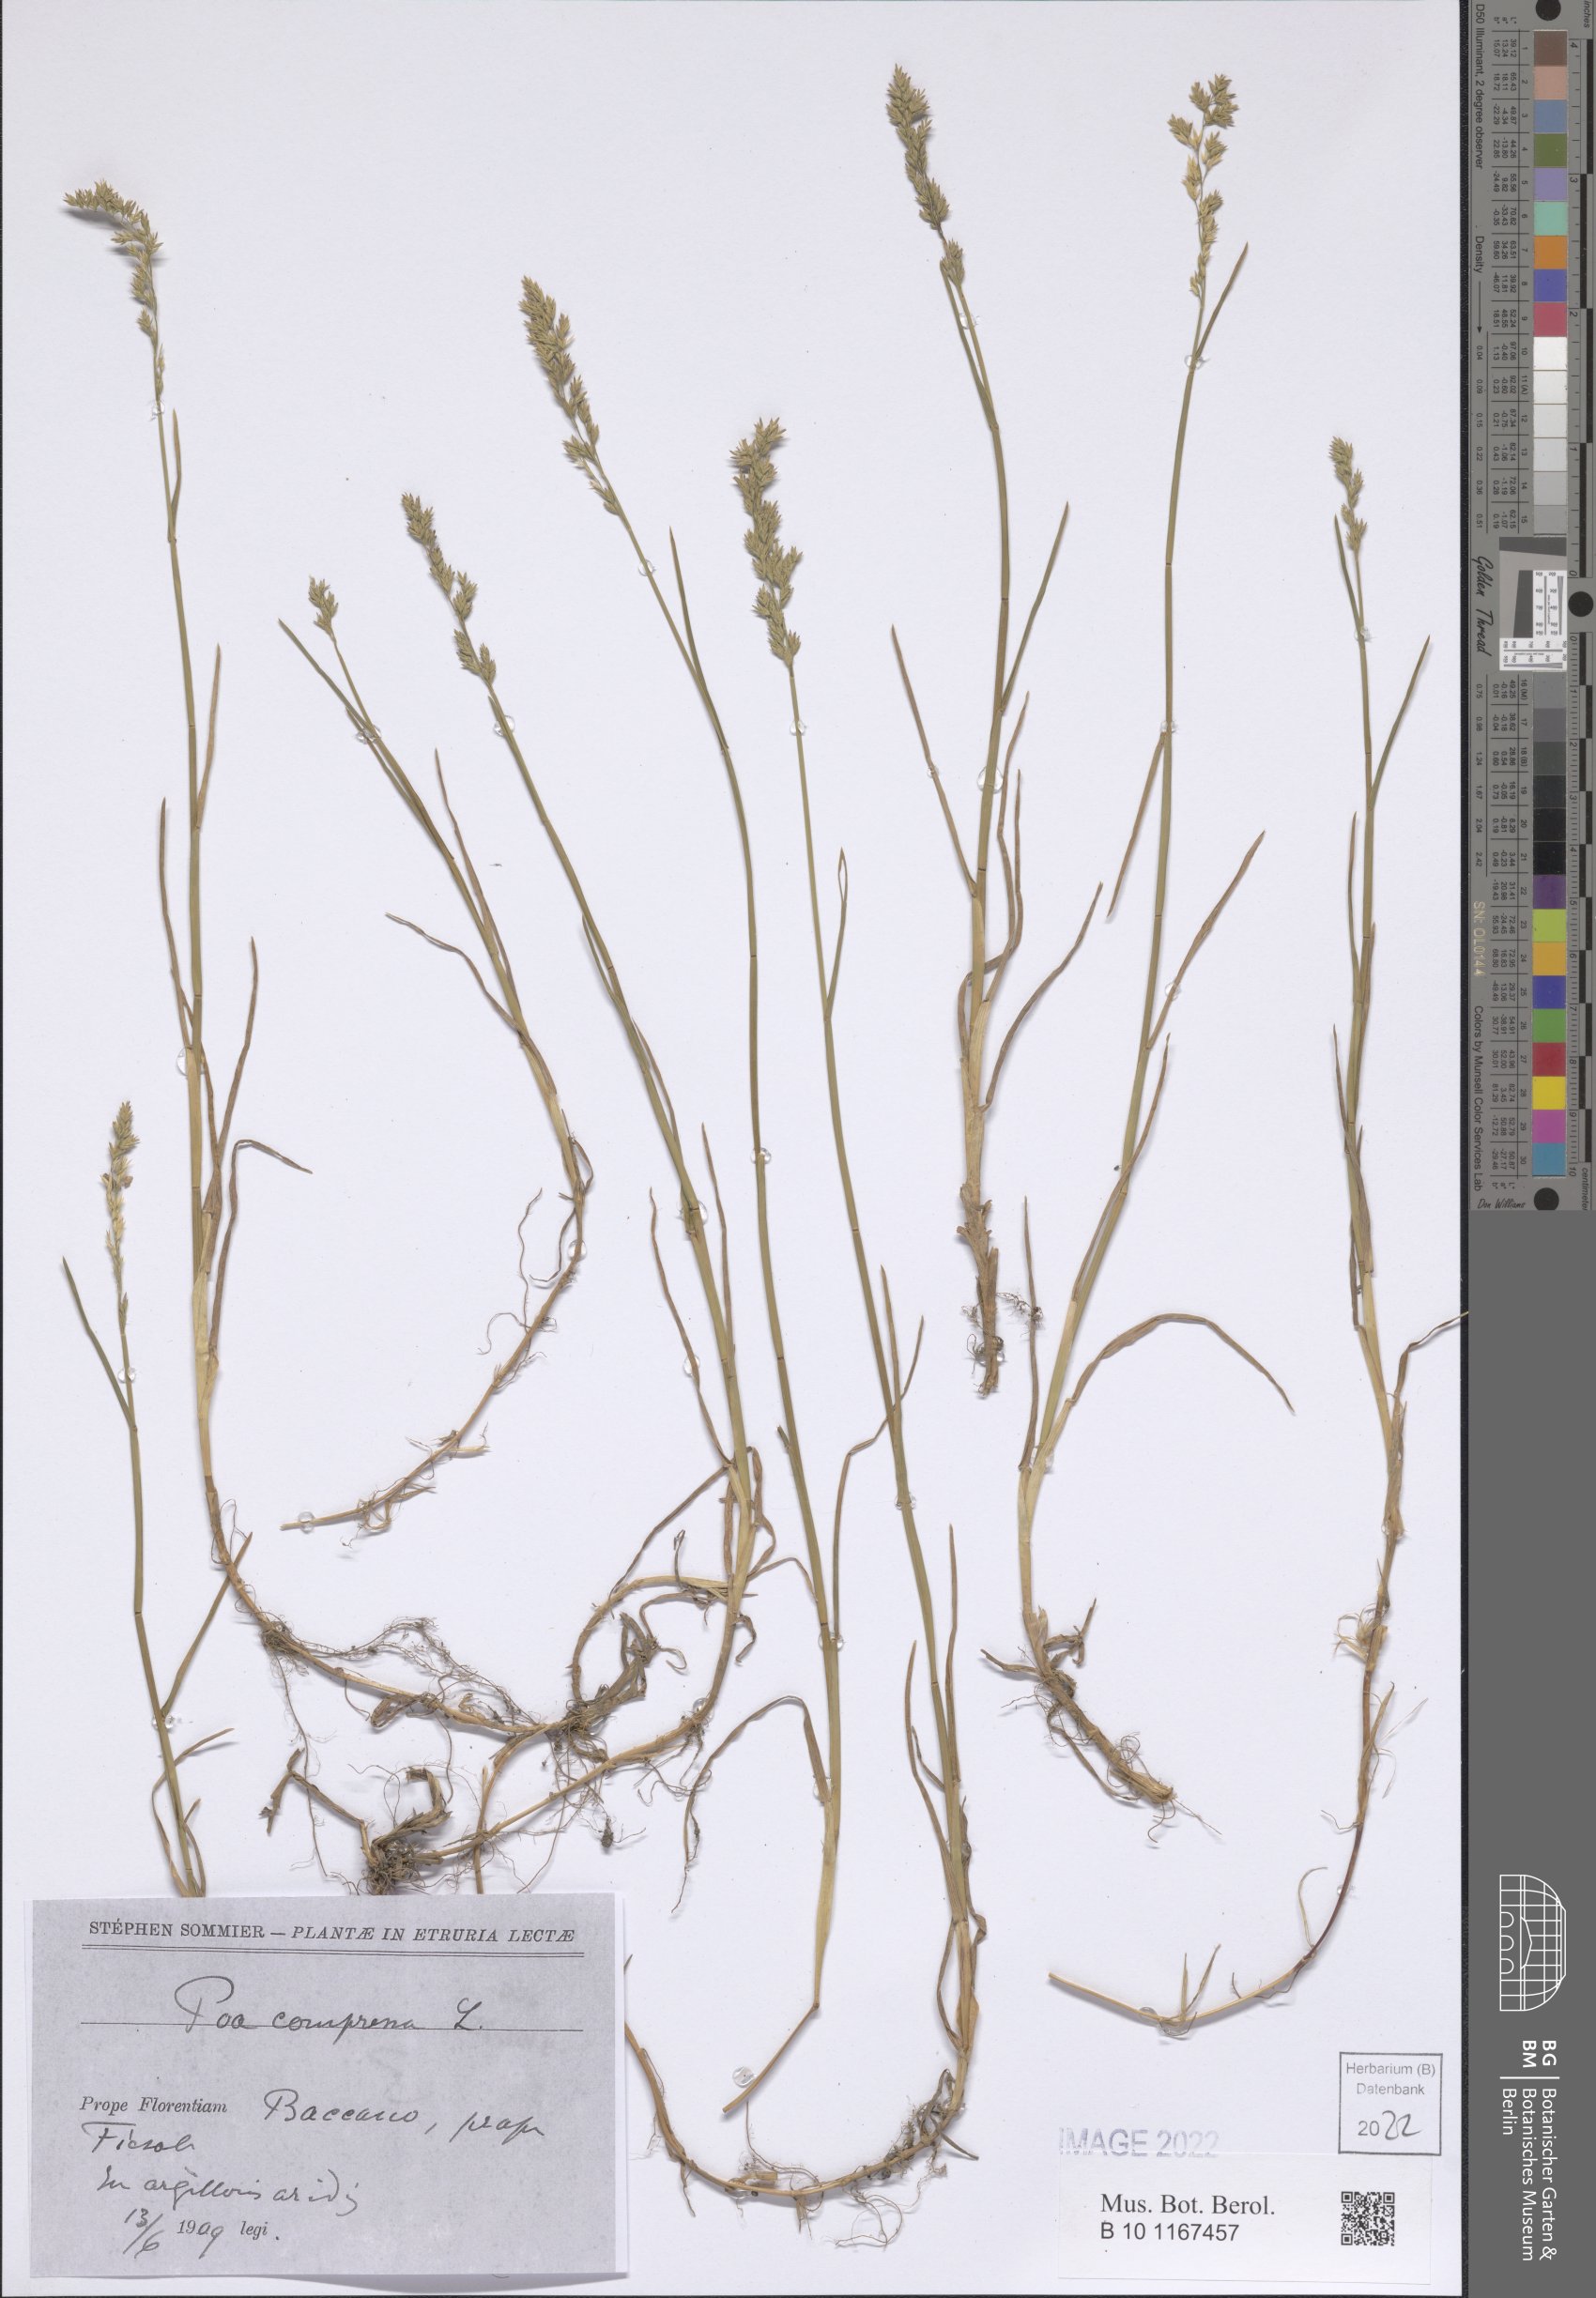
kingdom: Plantae
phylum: Tracheophyta
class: Liliopsida
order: Poales
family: Poaceae
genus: Poa
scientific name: Poa compressa
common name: Canada bluegrass
